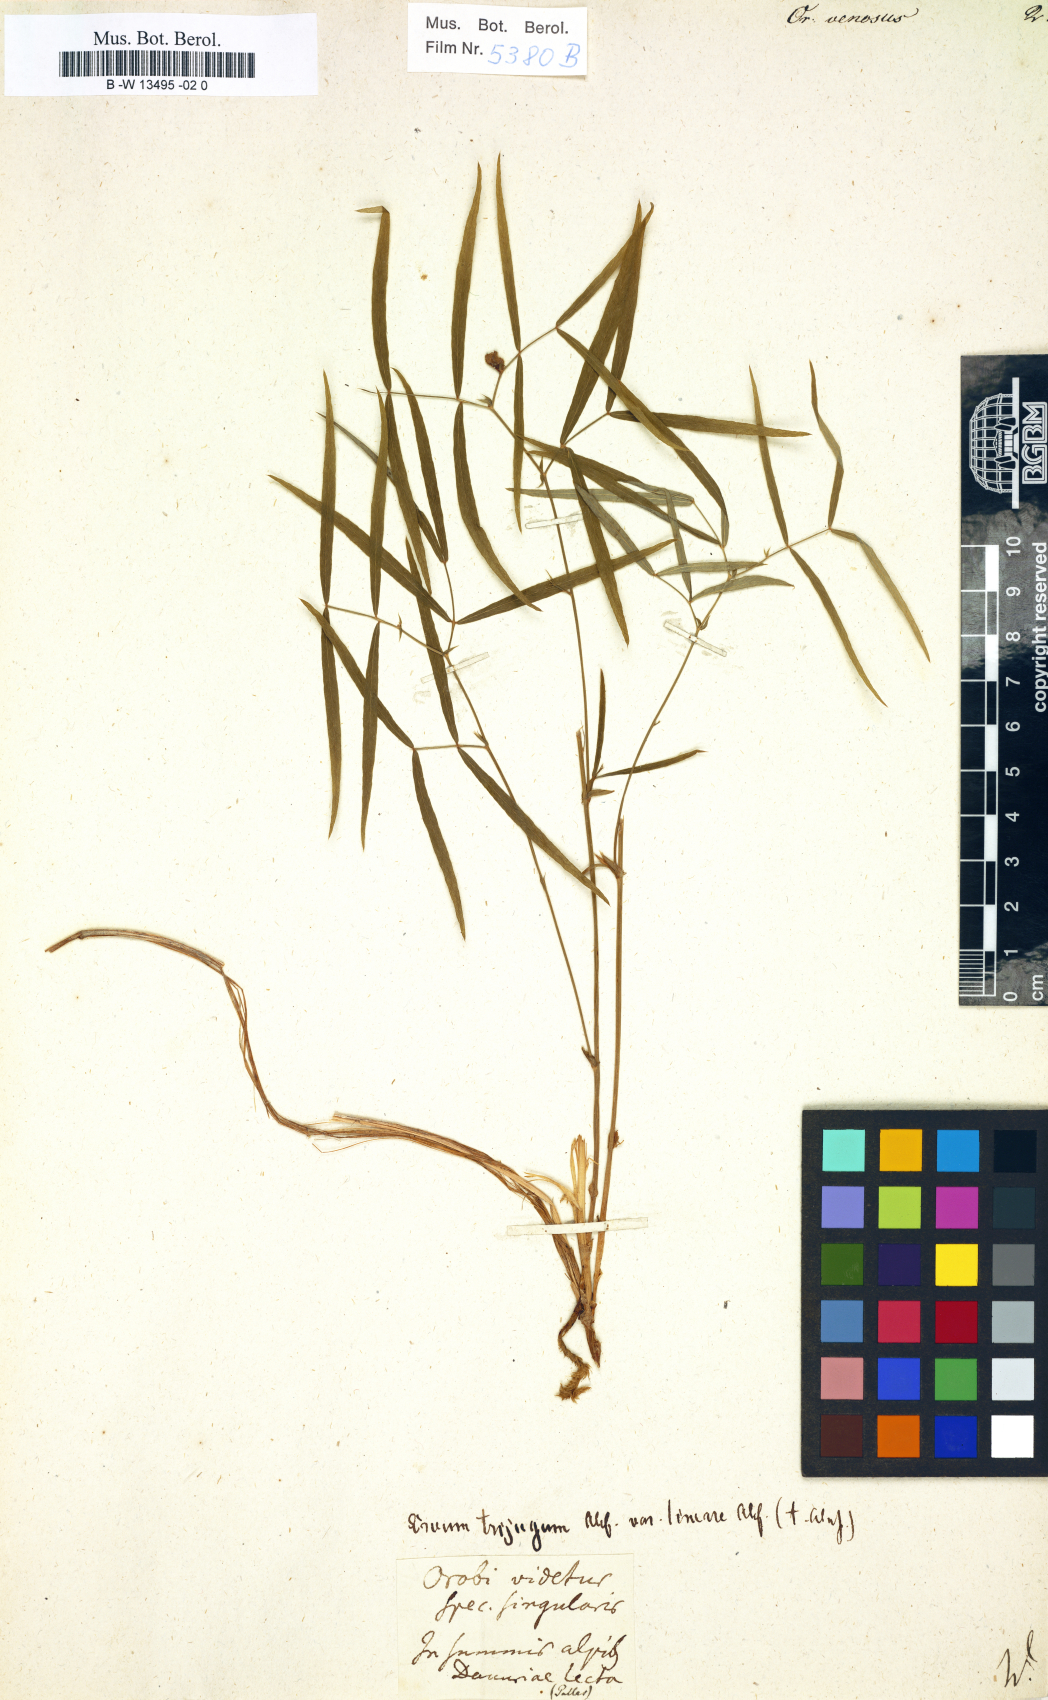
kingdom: Plantae
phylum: Tracheophyta
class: Magnoliopsida
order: Fabales
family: Fabaceae
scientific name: Fabaceae
